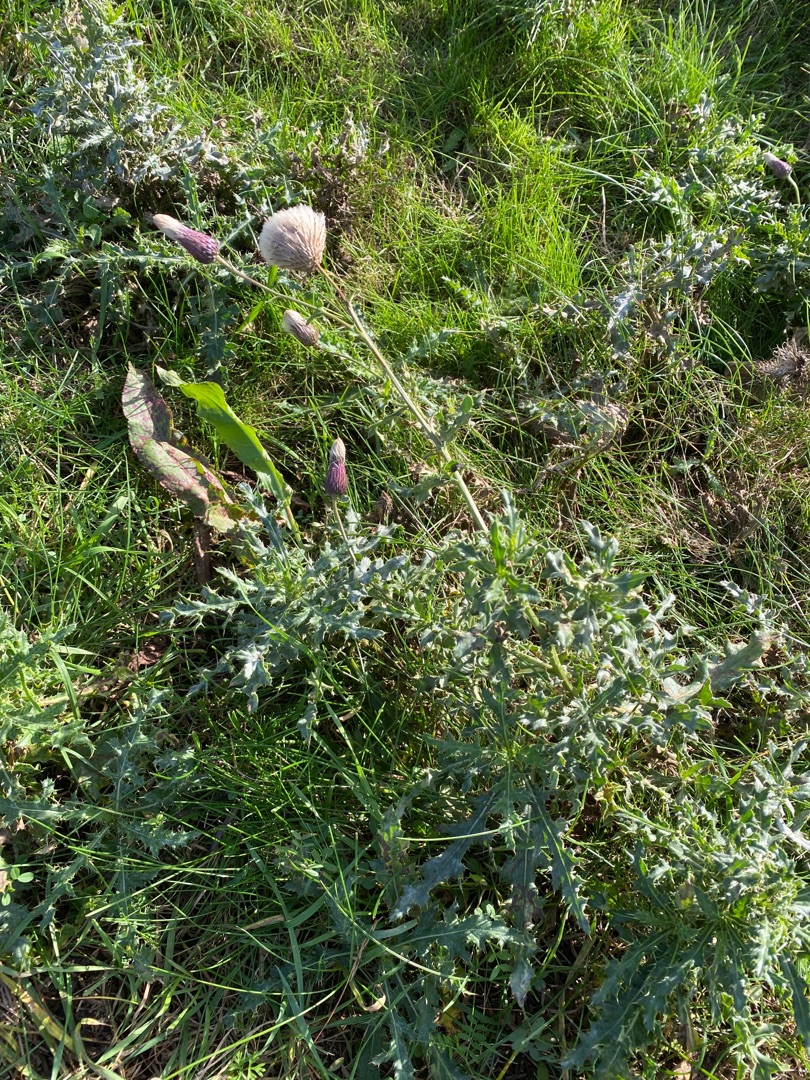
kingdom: Plantae
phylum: Tracheophyta
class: Magnoliopsida
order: Asterales
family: Asteraceae
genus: Cirsium
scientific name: Cirsium arvense
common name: Ager-tidsel
